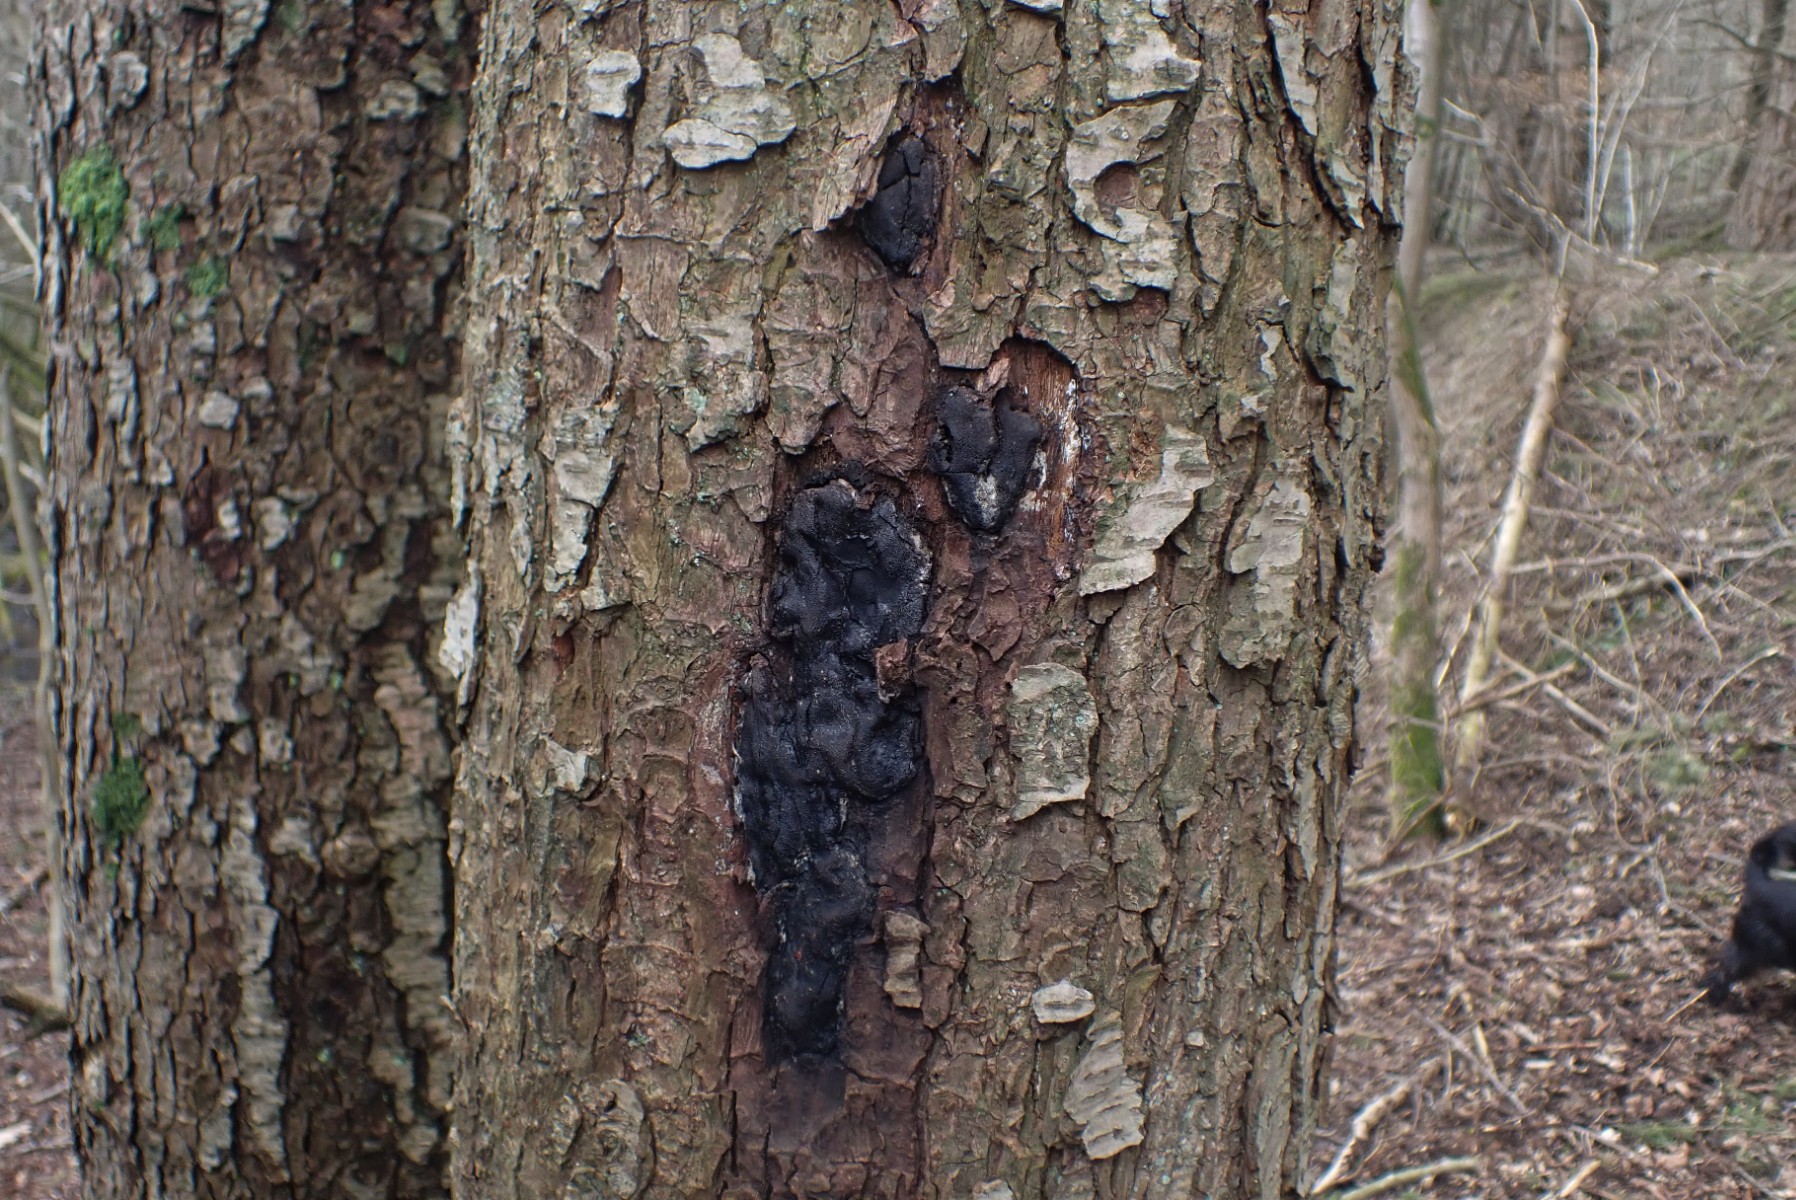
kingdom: Fungi
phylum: Ascomycota
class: Sordariomycetes
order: Boliniales
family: Boliniaceae
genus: Camarops
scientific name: Camarops polysperma
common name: elle-kulsnegl
